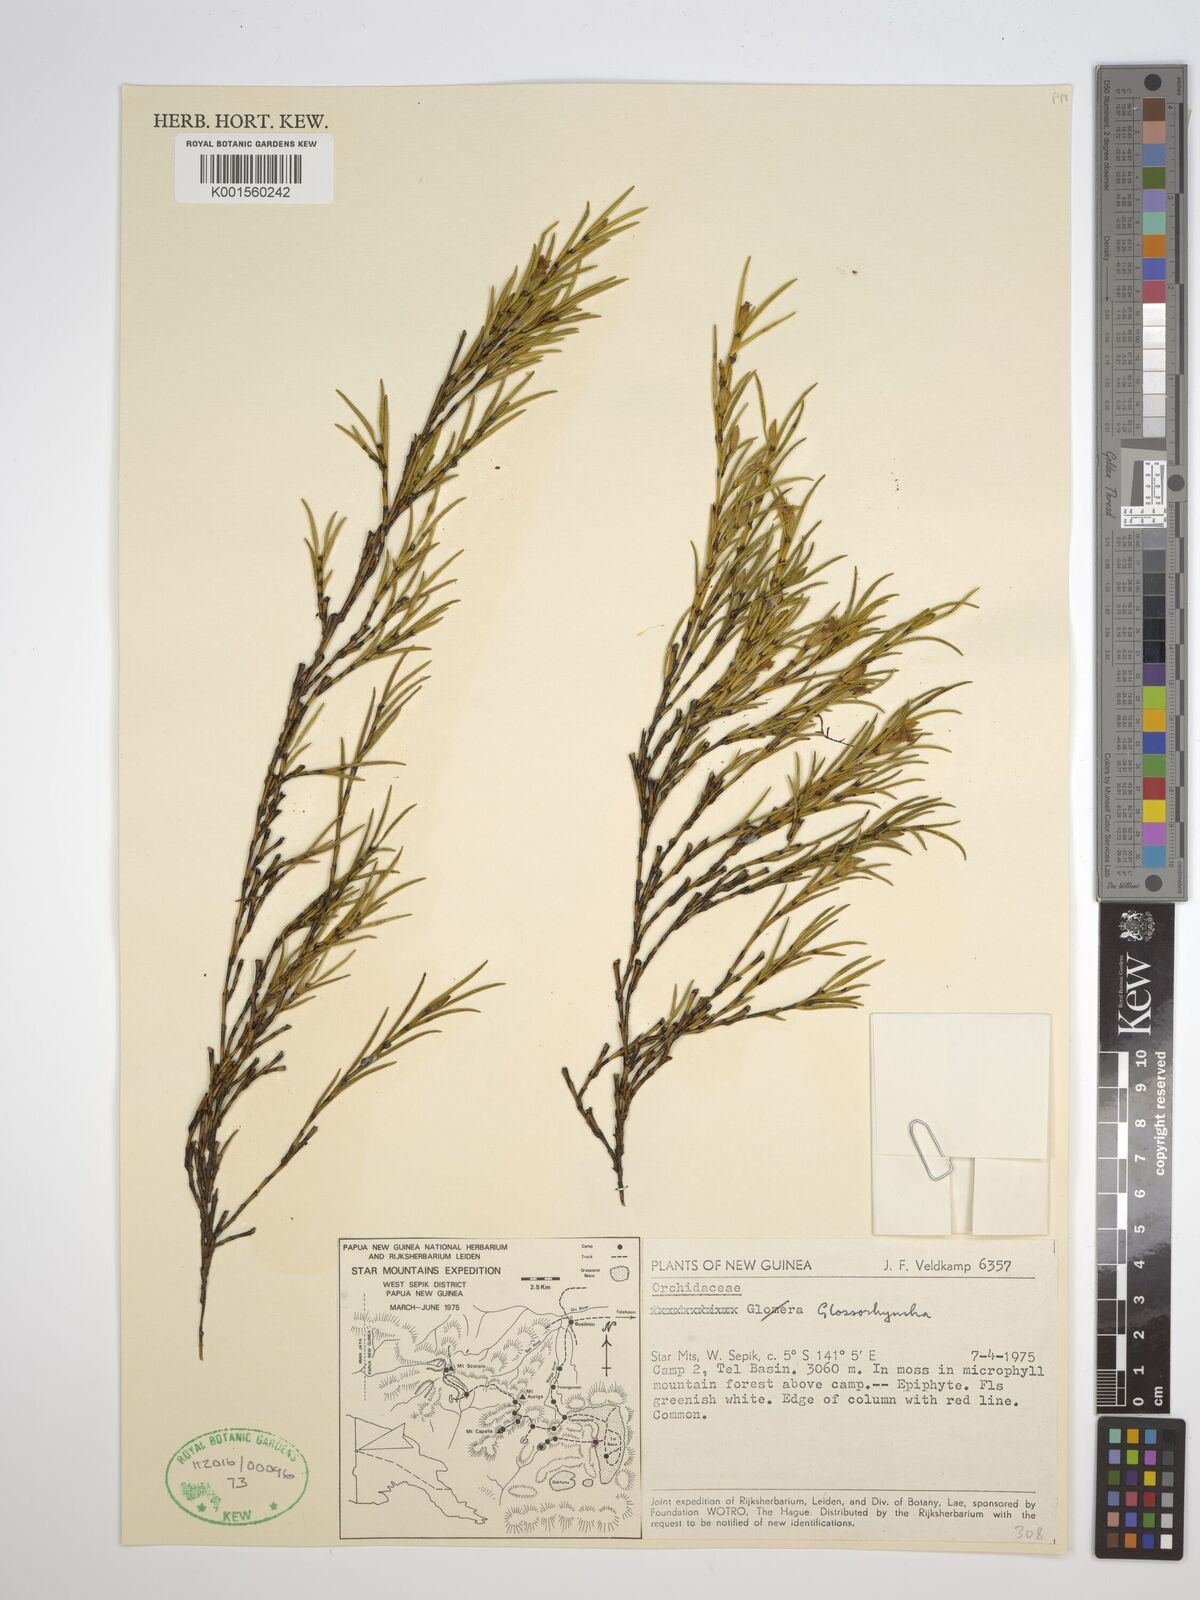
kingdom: Plantae
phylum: Tracheophyta
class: Liliopsida
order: Asparagales
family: Orchidaceae
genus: Glomera
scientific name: Glomera
